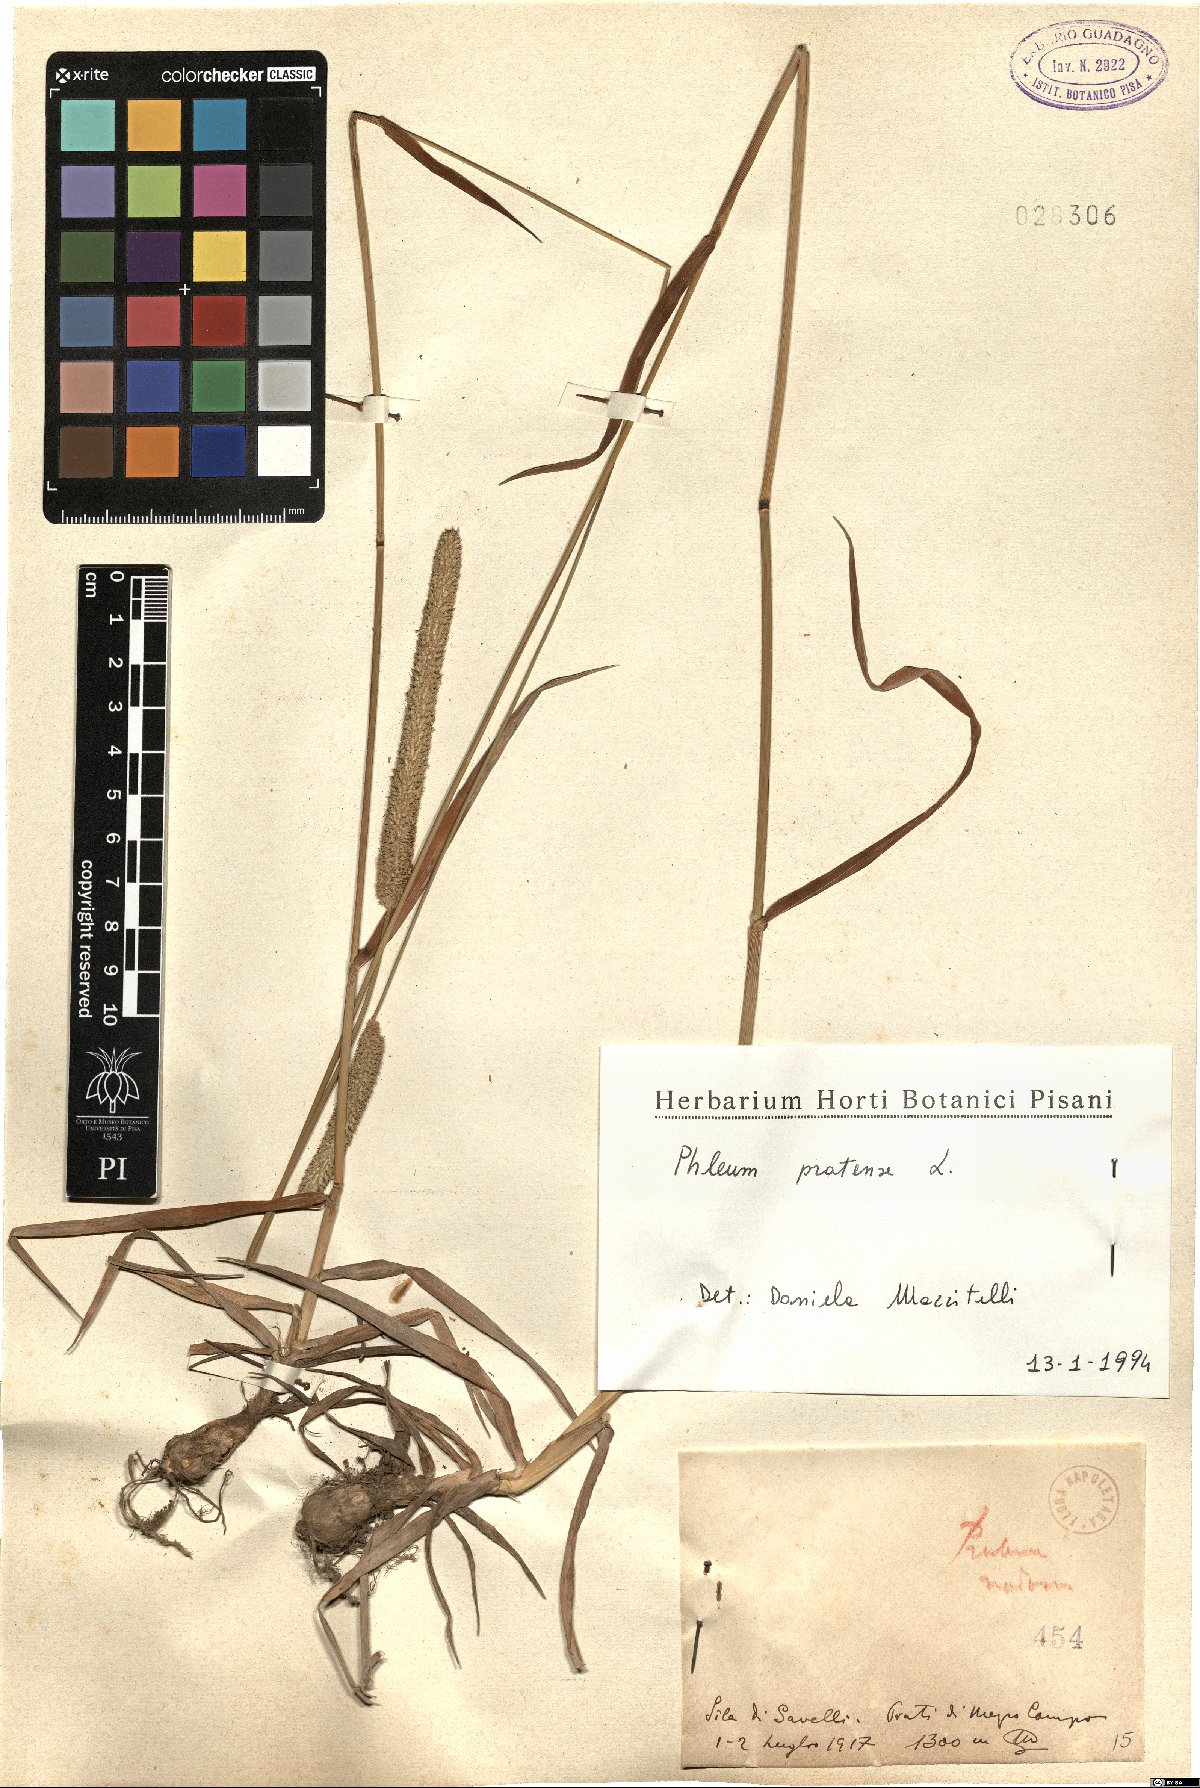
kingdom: Plantae
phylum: Tracheophyta
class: Liliopsida
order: Poales
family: Poaceae
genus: Phleum
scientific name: Phleum pratense
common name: Timothy grass
